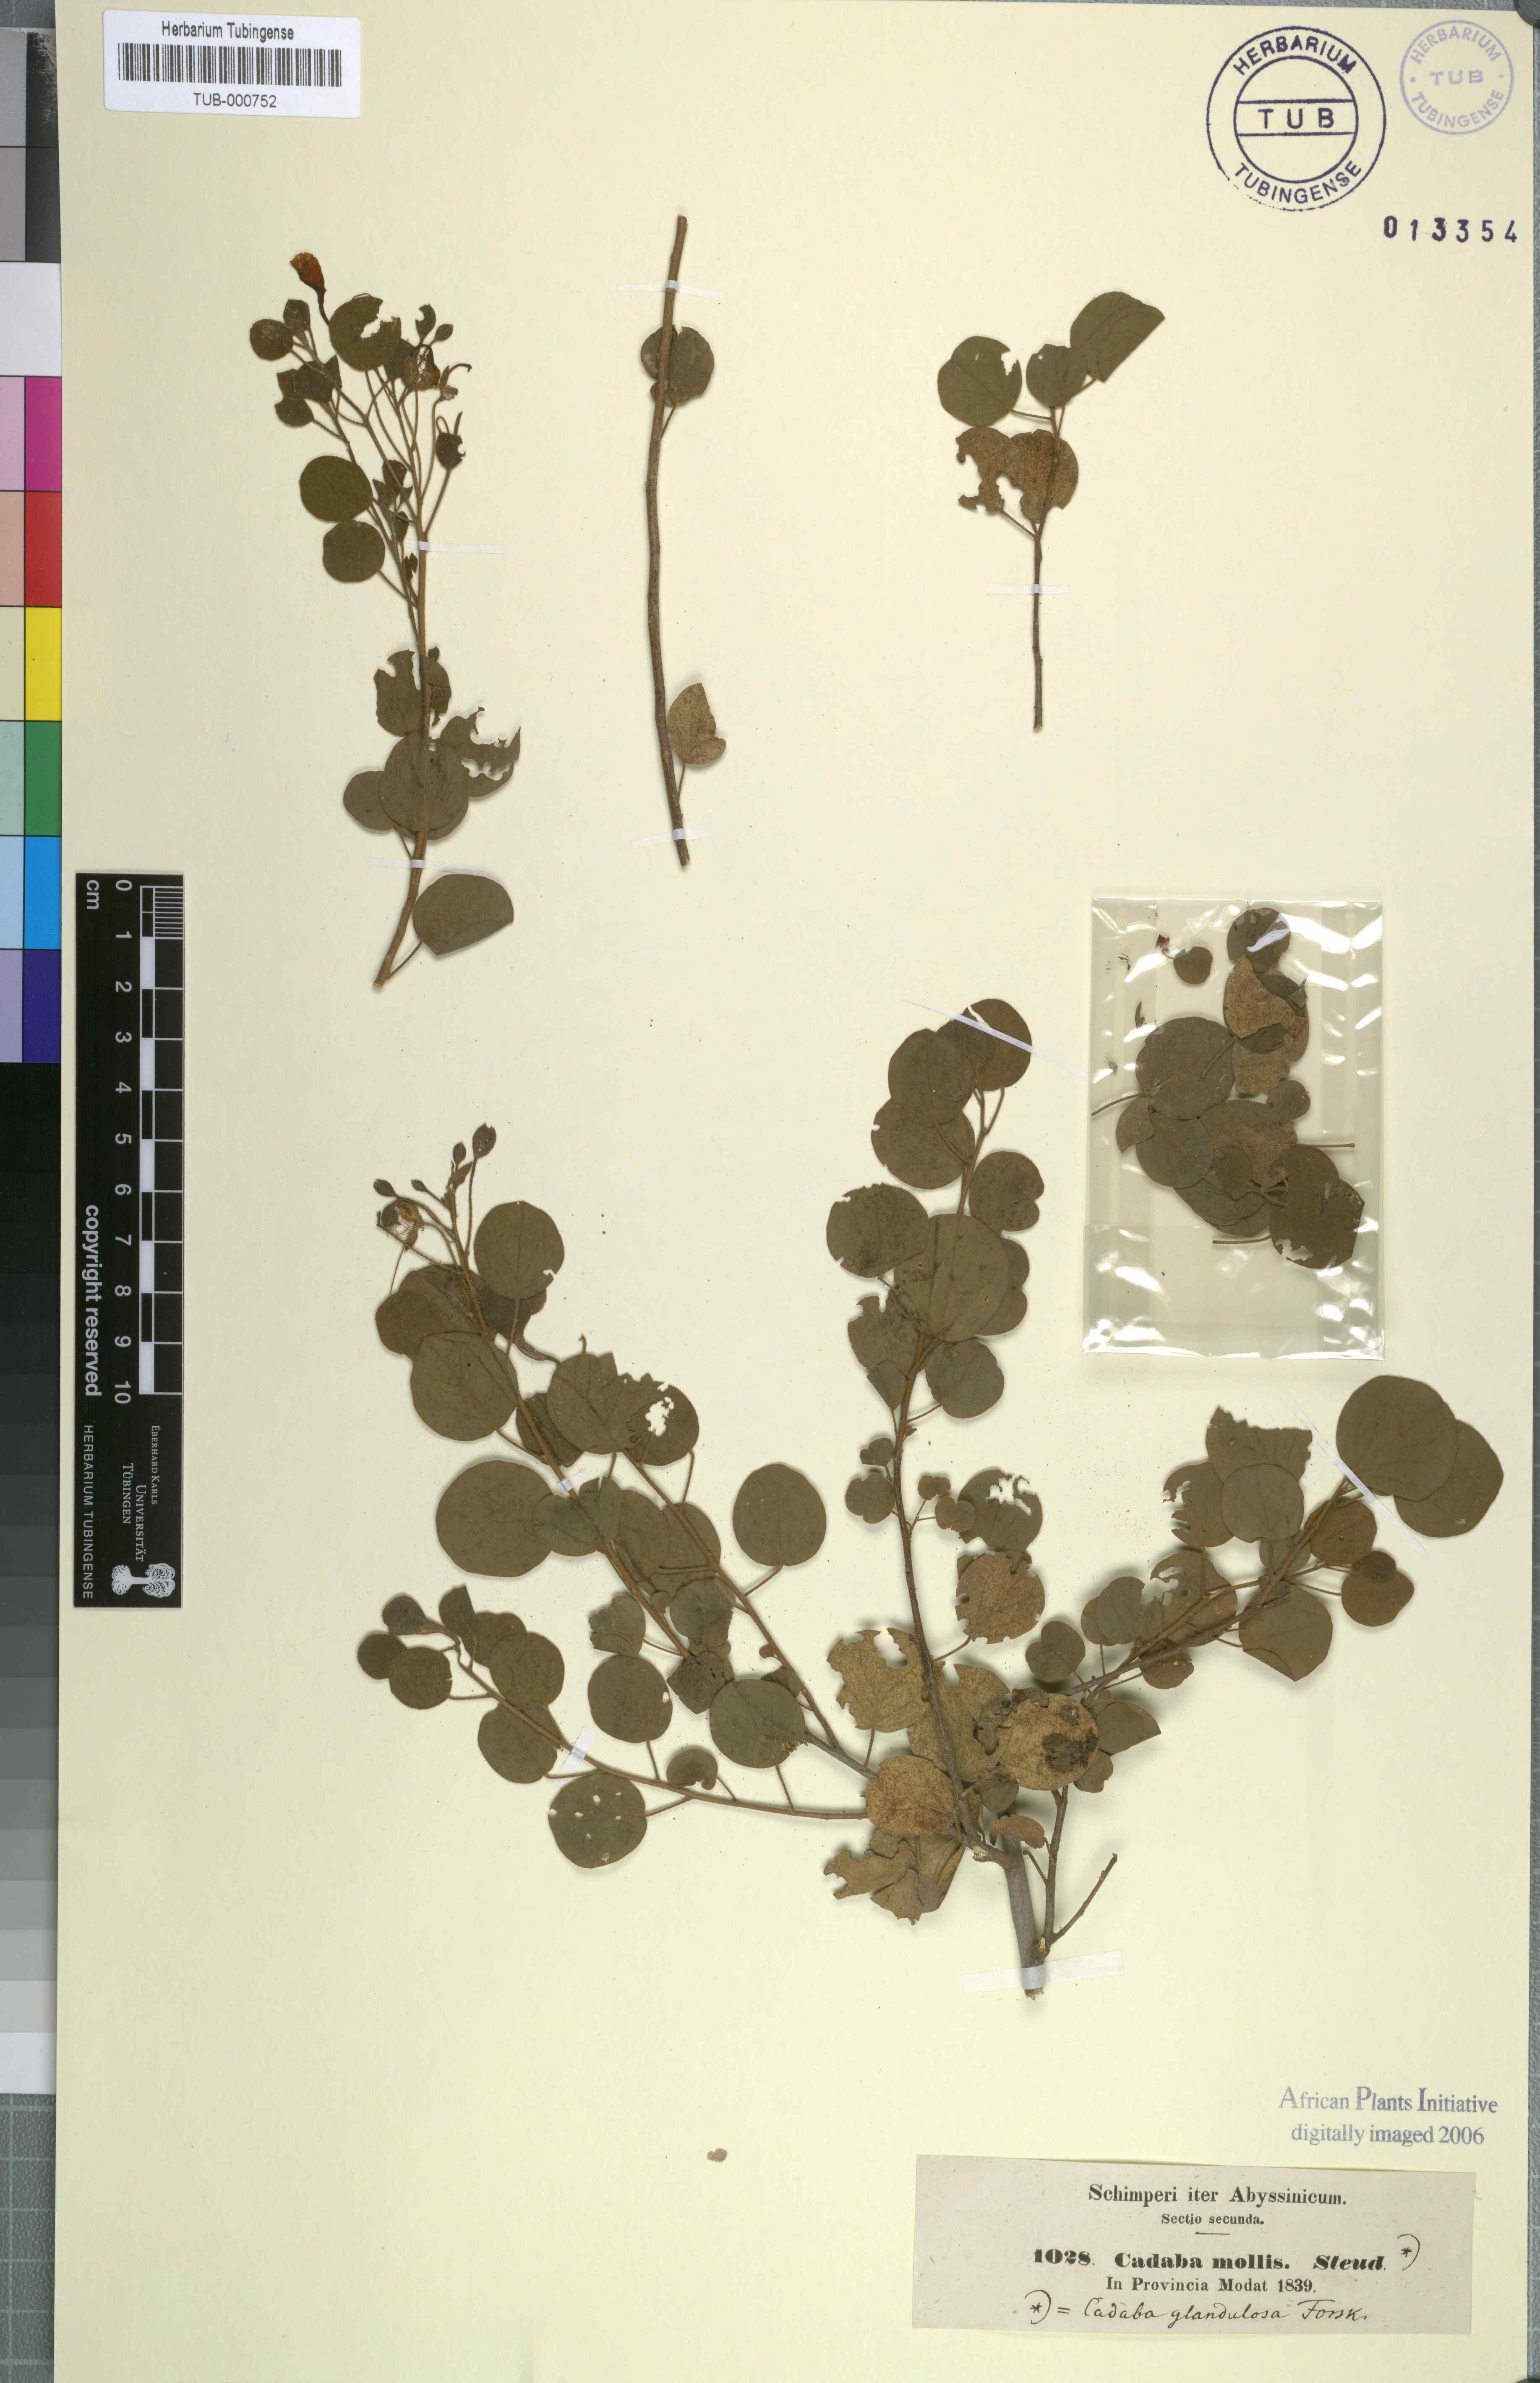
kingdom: Plantae
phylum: Tracheophyta
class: Magnoliopsida
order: Brassicales
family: Capparaceae
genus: Cadaba
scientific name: Cadaba glandulosa
